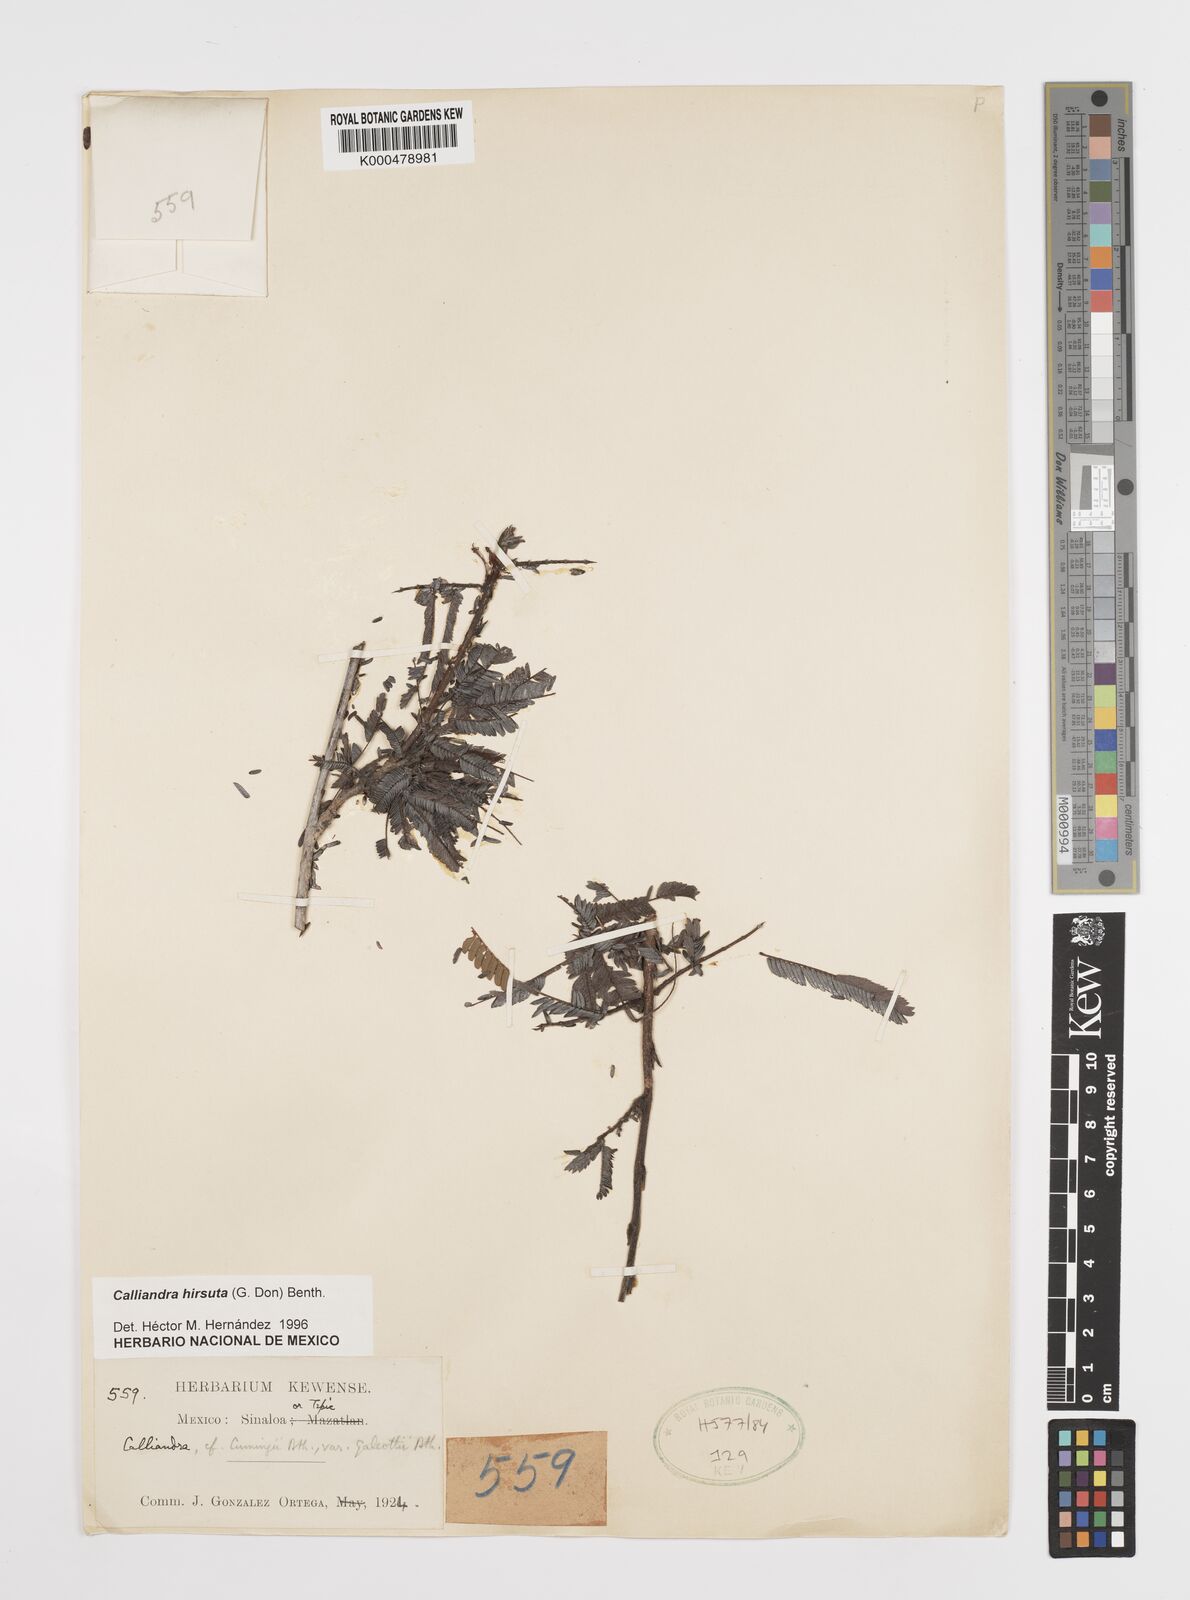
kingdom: Plantae
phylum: Tracheophyta
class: Magnoliopsida
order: Fabales
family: Fabaceae
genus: Calliandra
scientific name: Calliandra hirsuta
